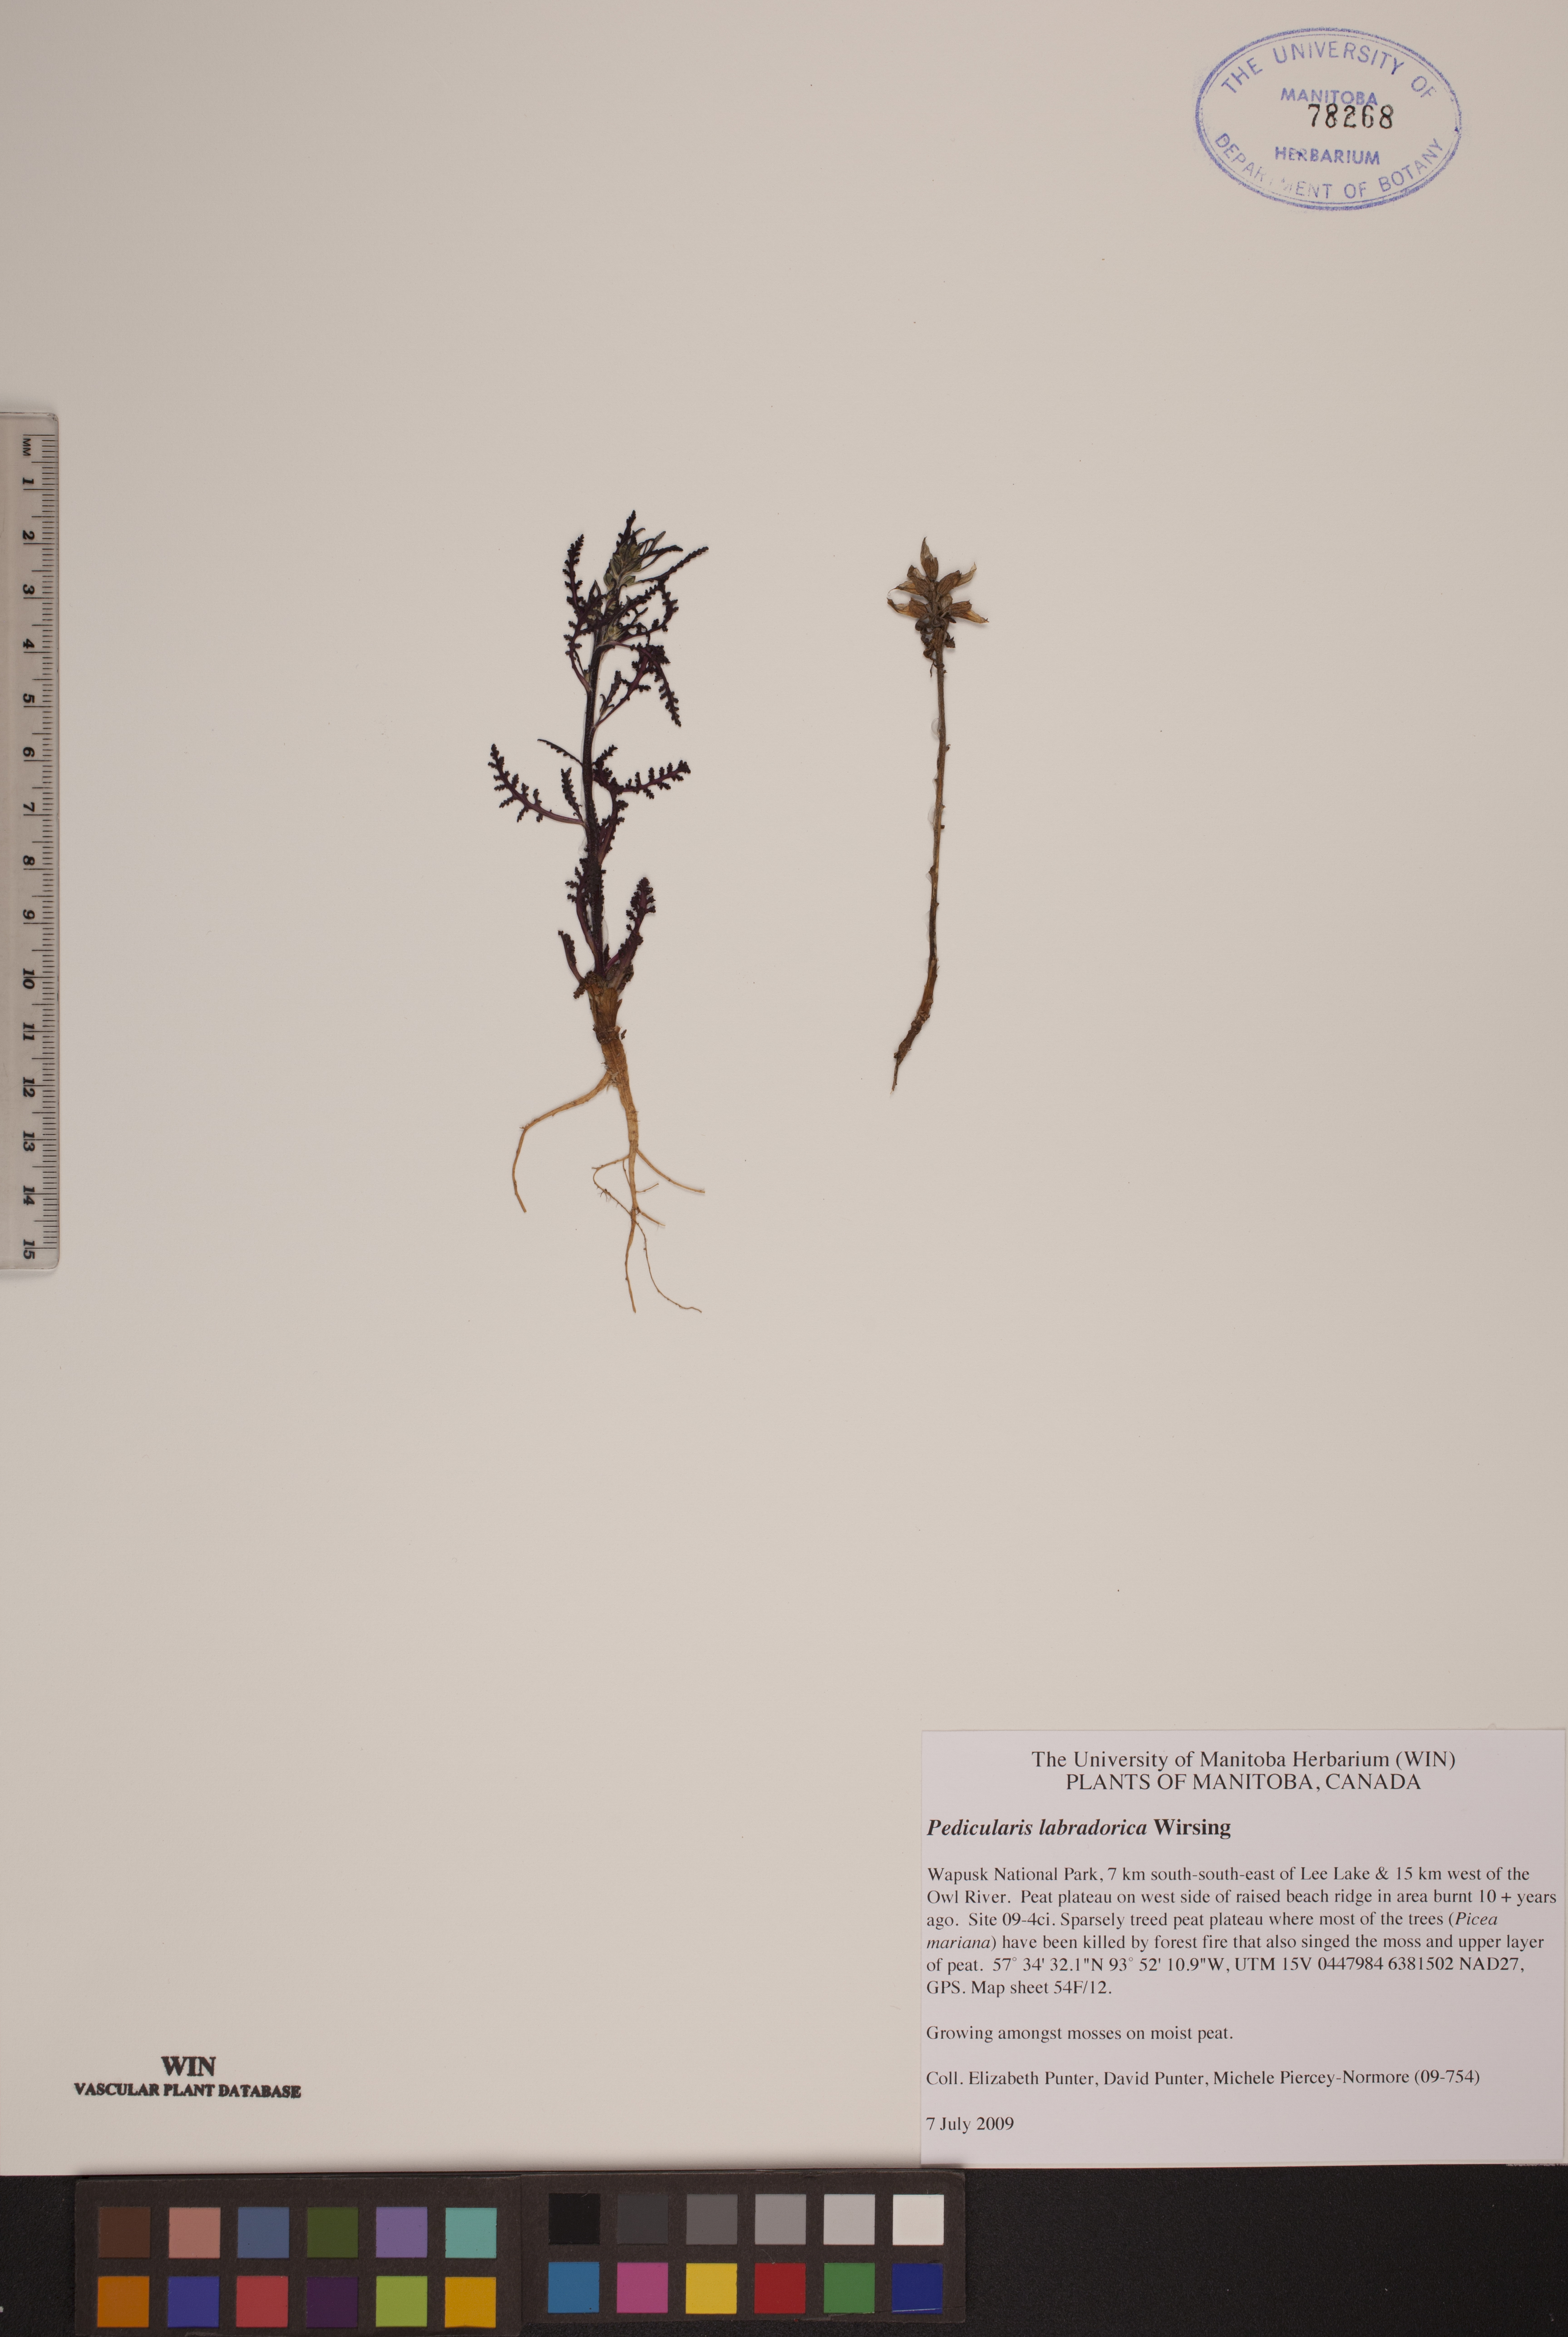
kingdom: Plantae
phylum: Tracheophyta
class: Magnoliopsida
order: Lamiales
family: Orobanchaceae
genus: Pedicularis
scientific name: Pedicularis labradorica
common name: Labrador lousewort
